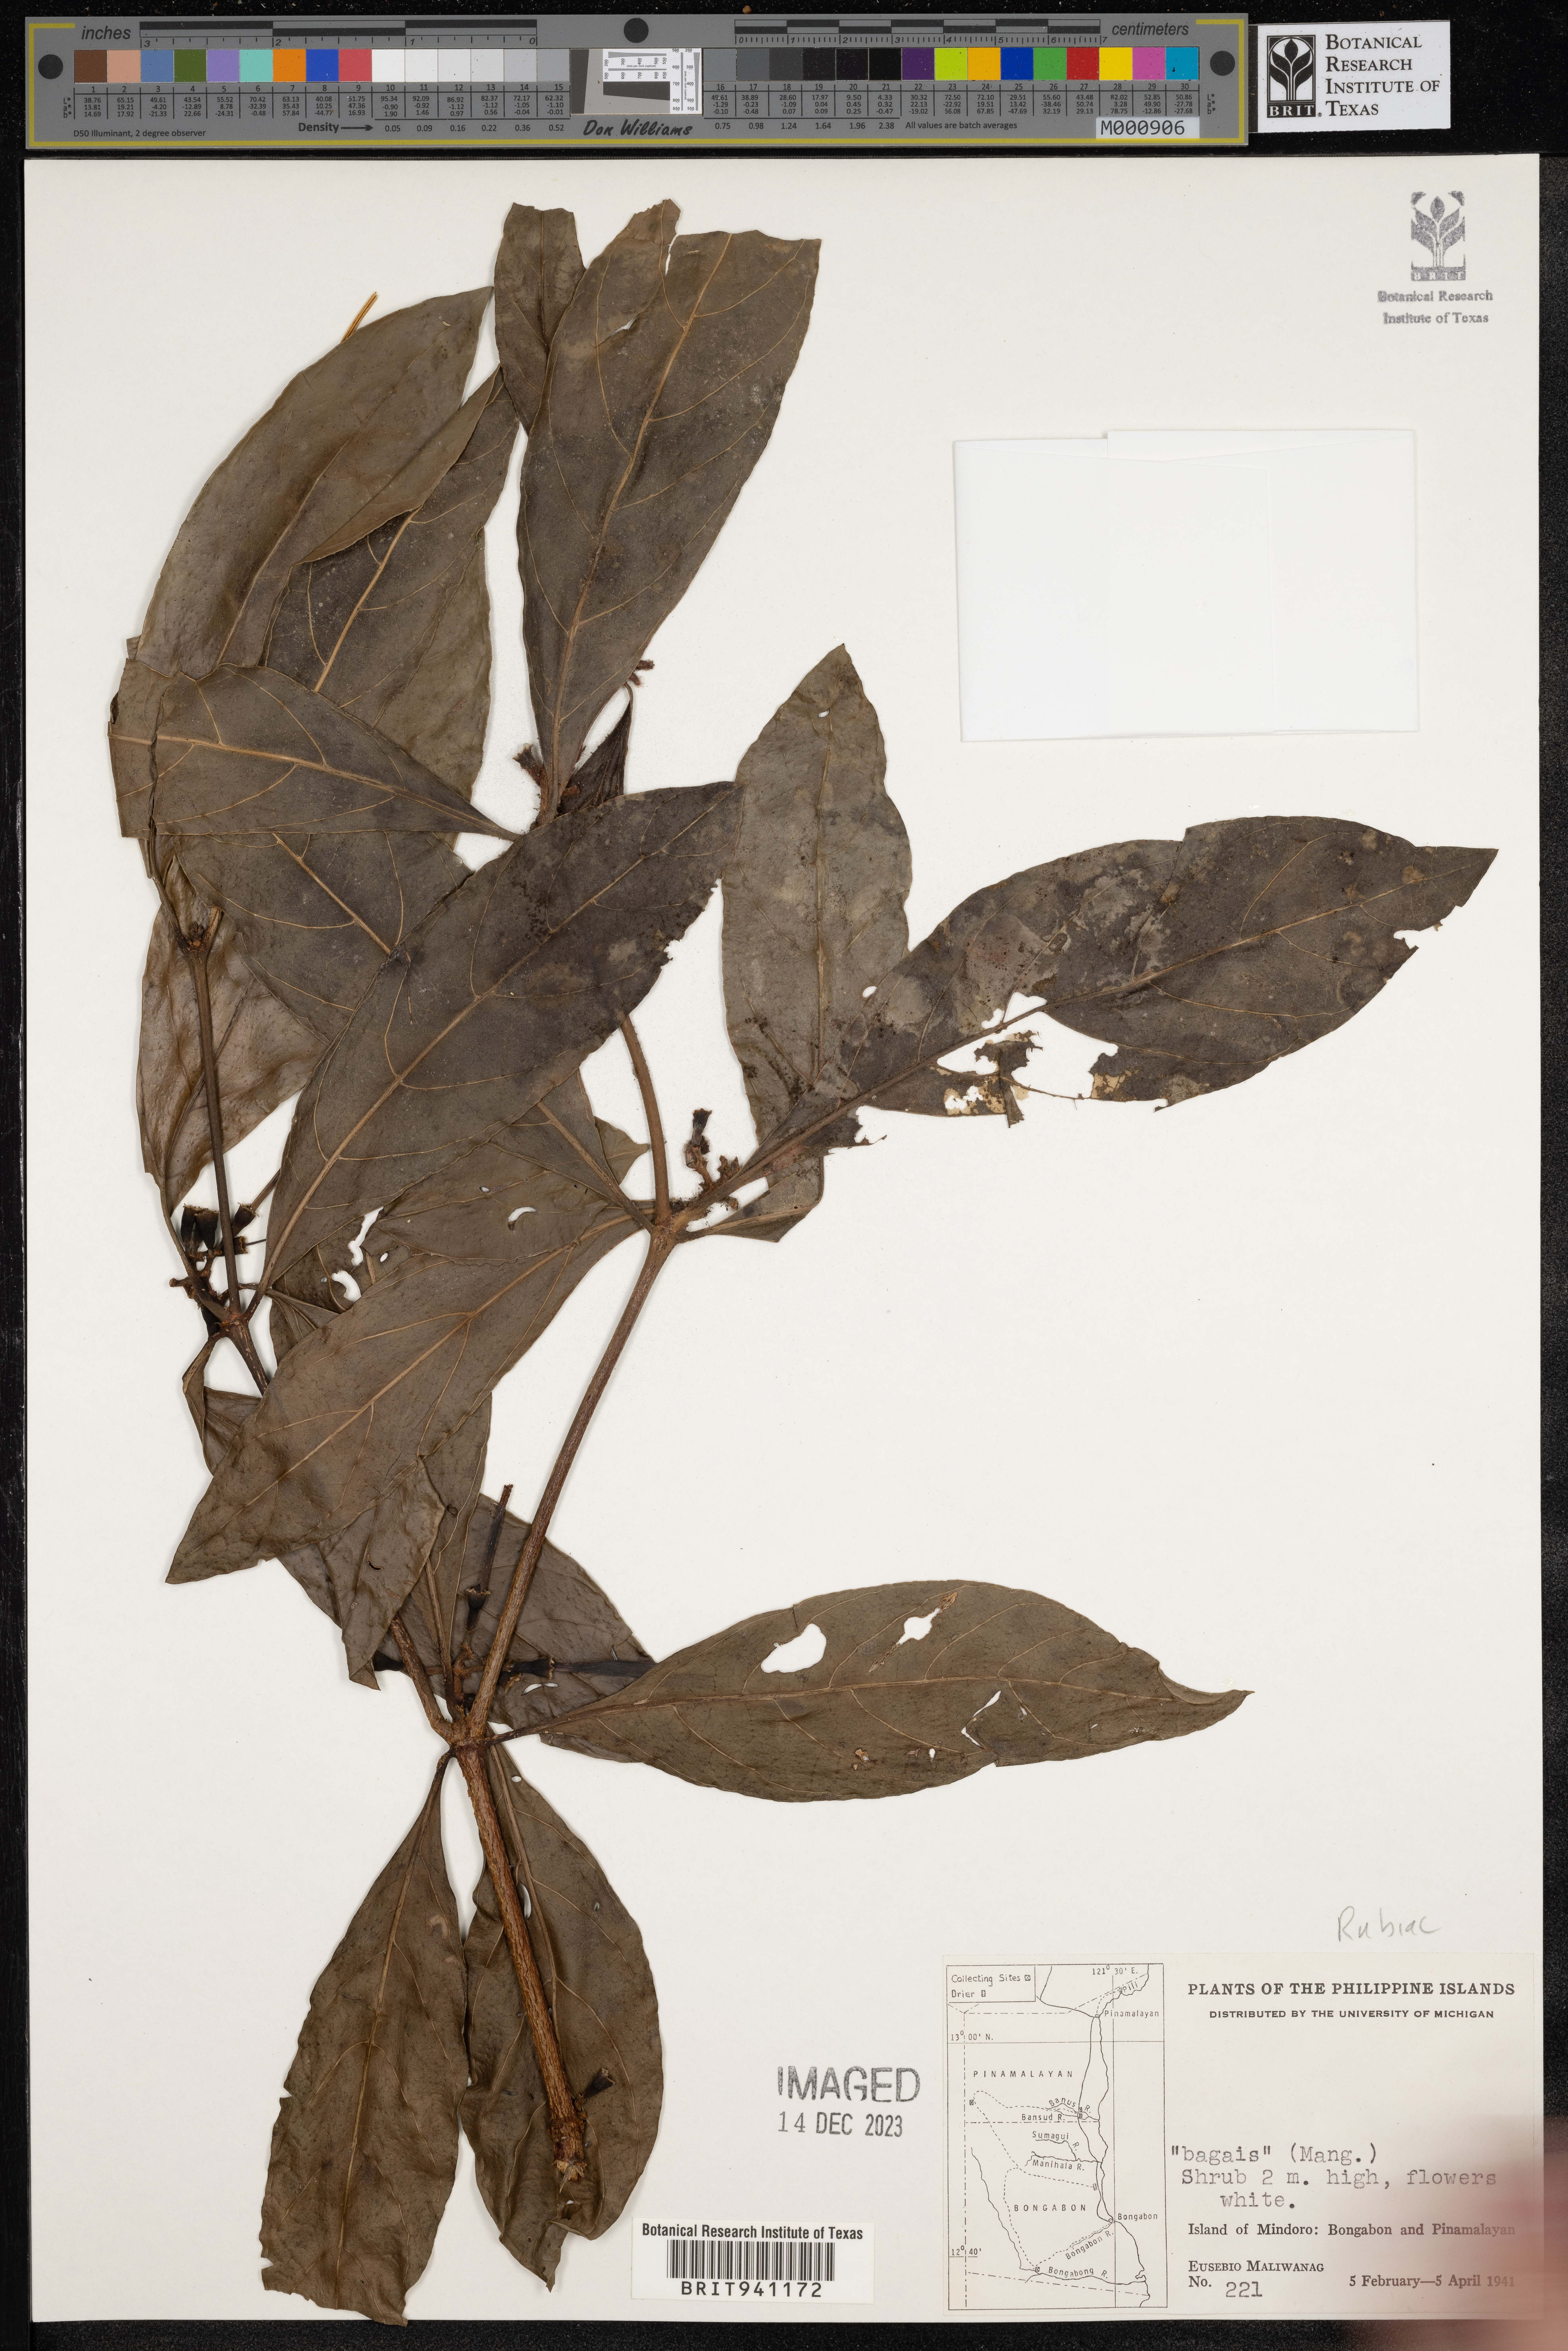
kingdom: Plantae
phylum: Tracheophyta
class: Magnoliopsida
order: Gentianales
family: Rubiaceae
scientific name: Rubiaceae
